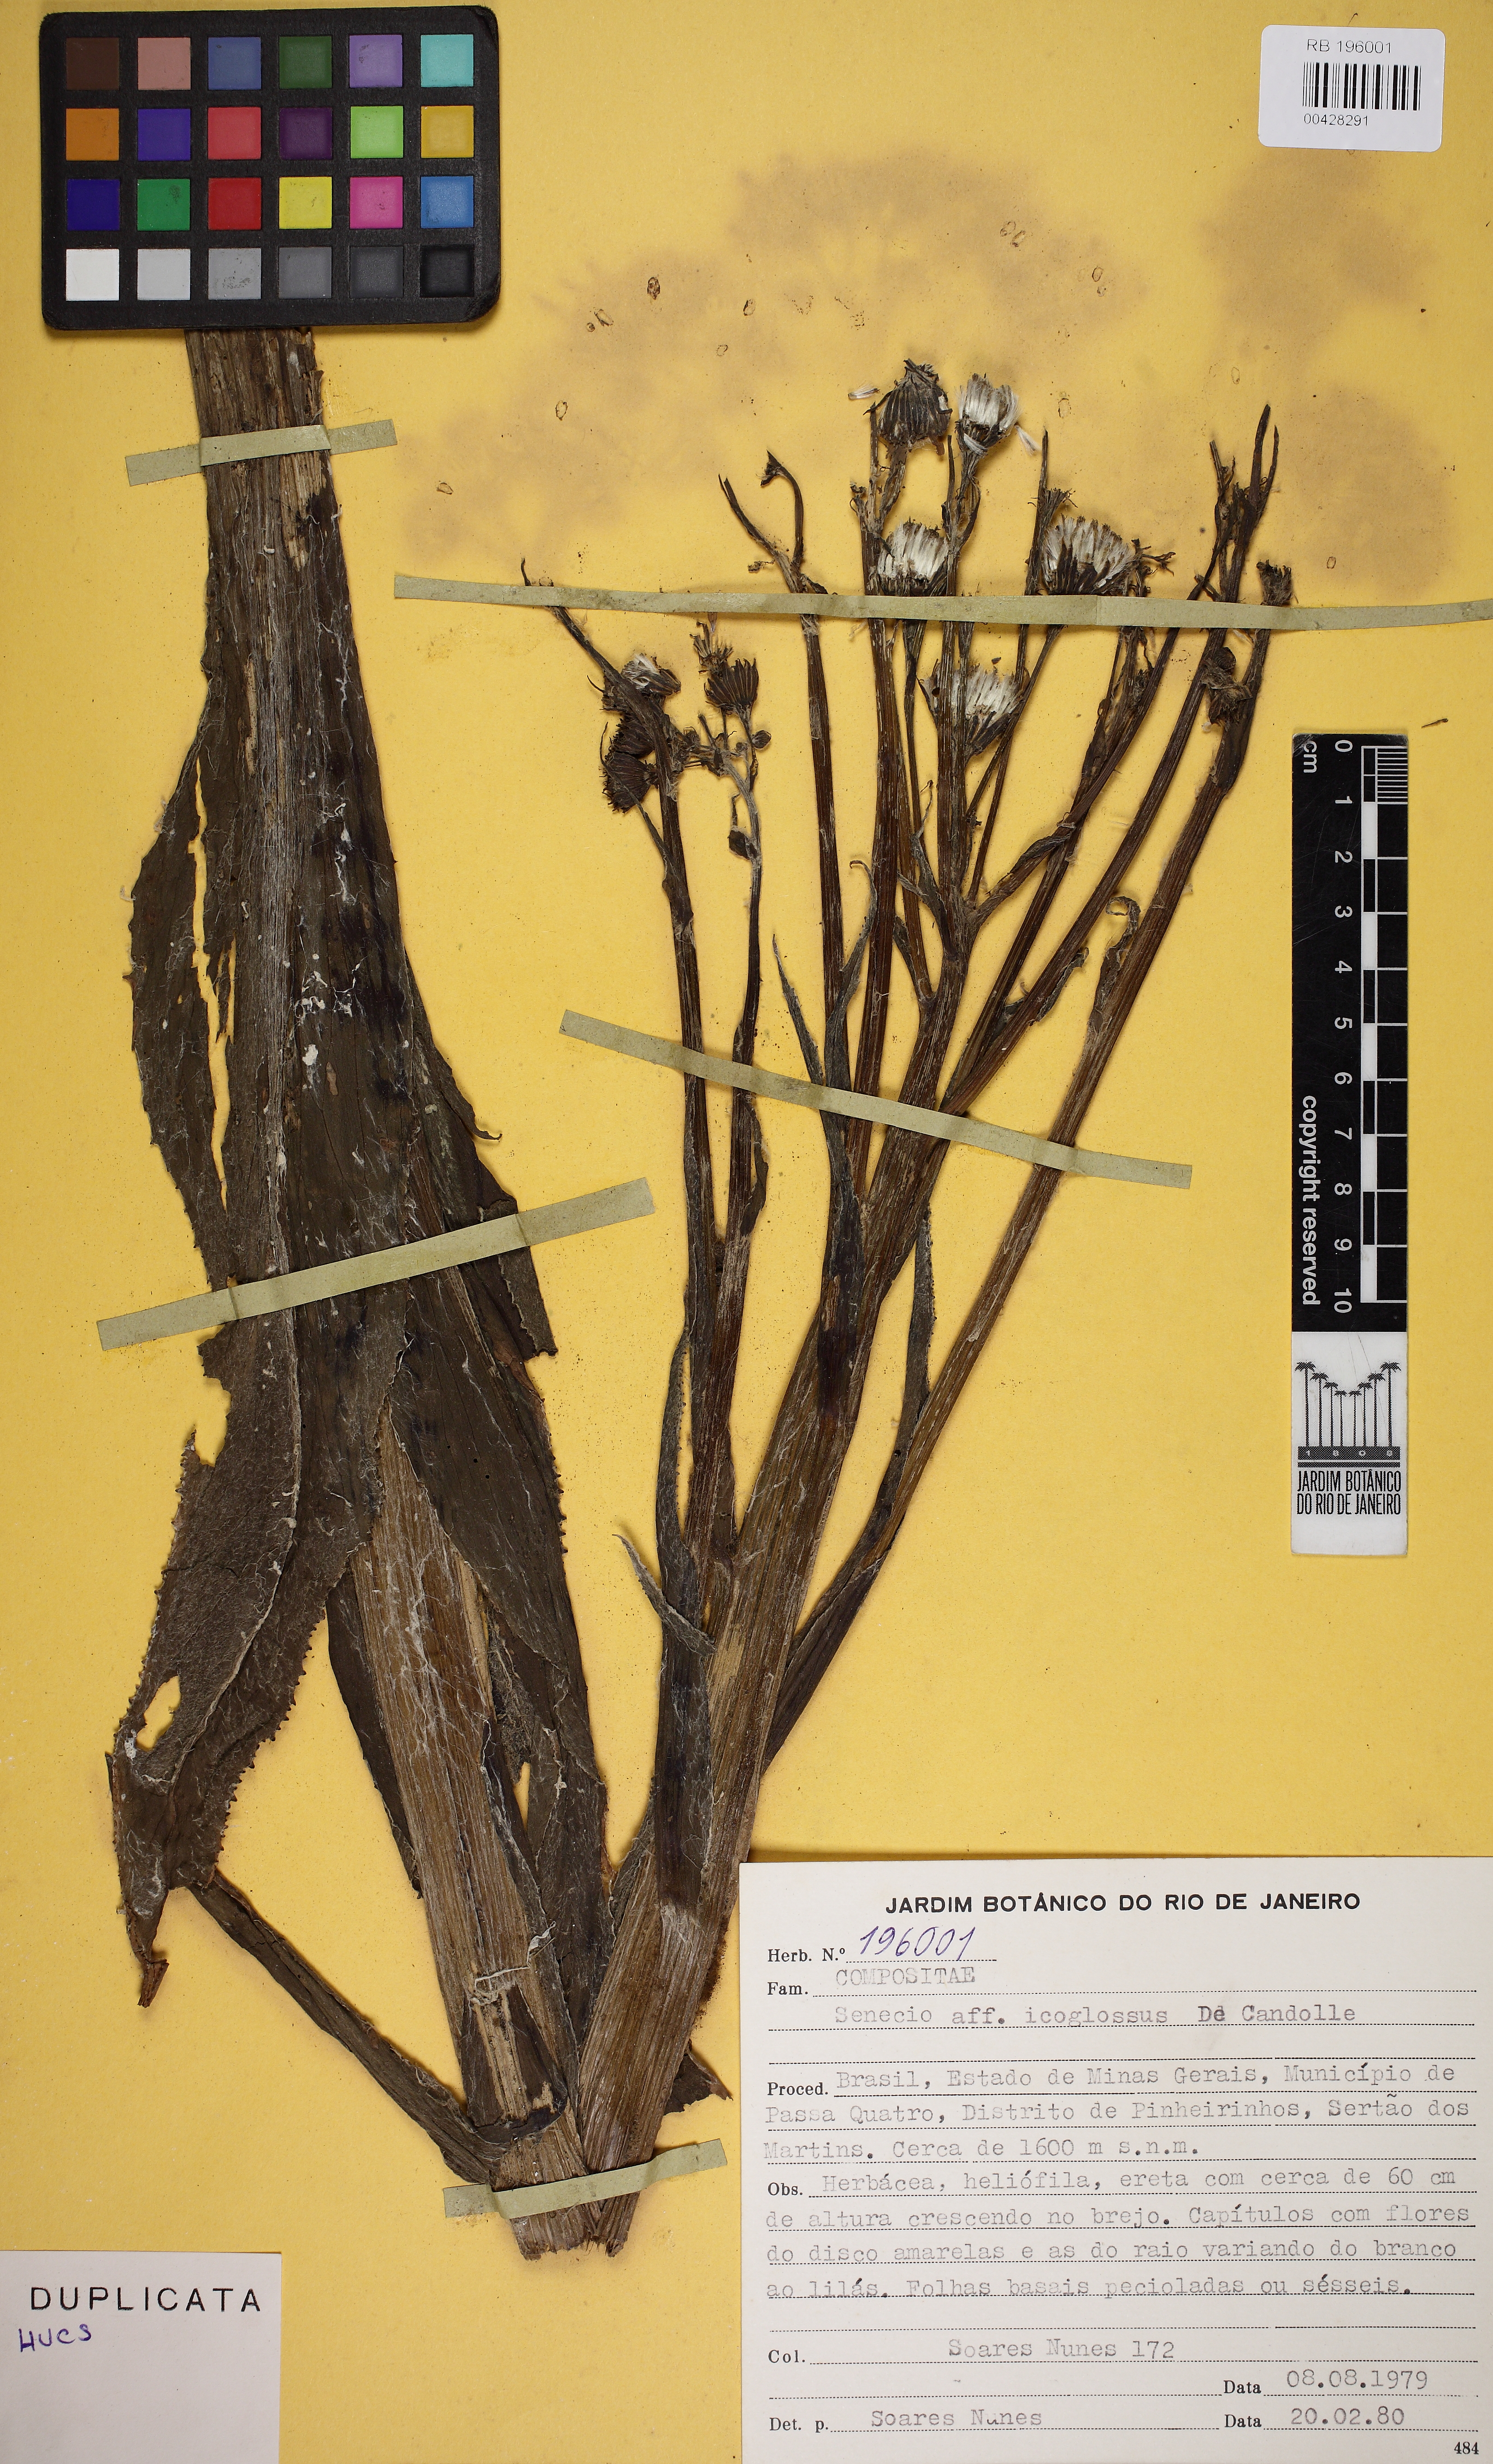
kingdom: Plantae
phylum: Tracheophyta
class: Magnoliopsida
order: Asterales
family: Asteraceae
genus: Senecio
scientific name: Senecio icoglossus
